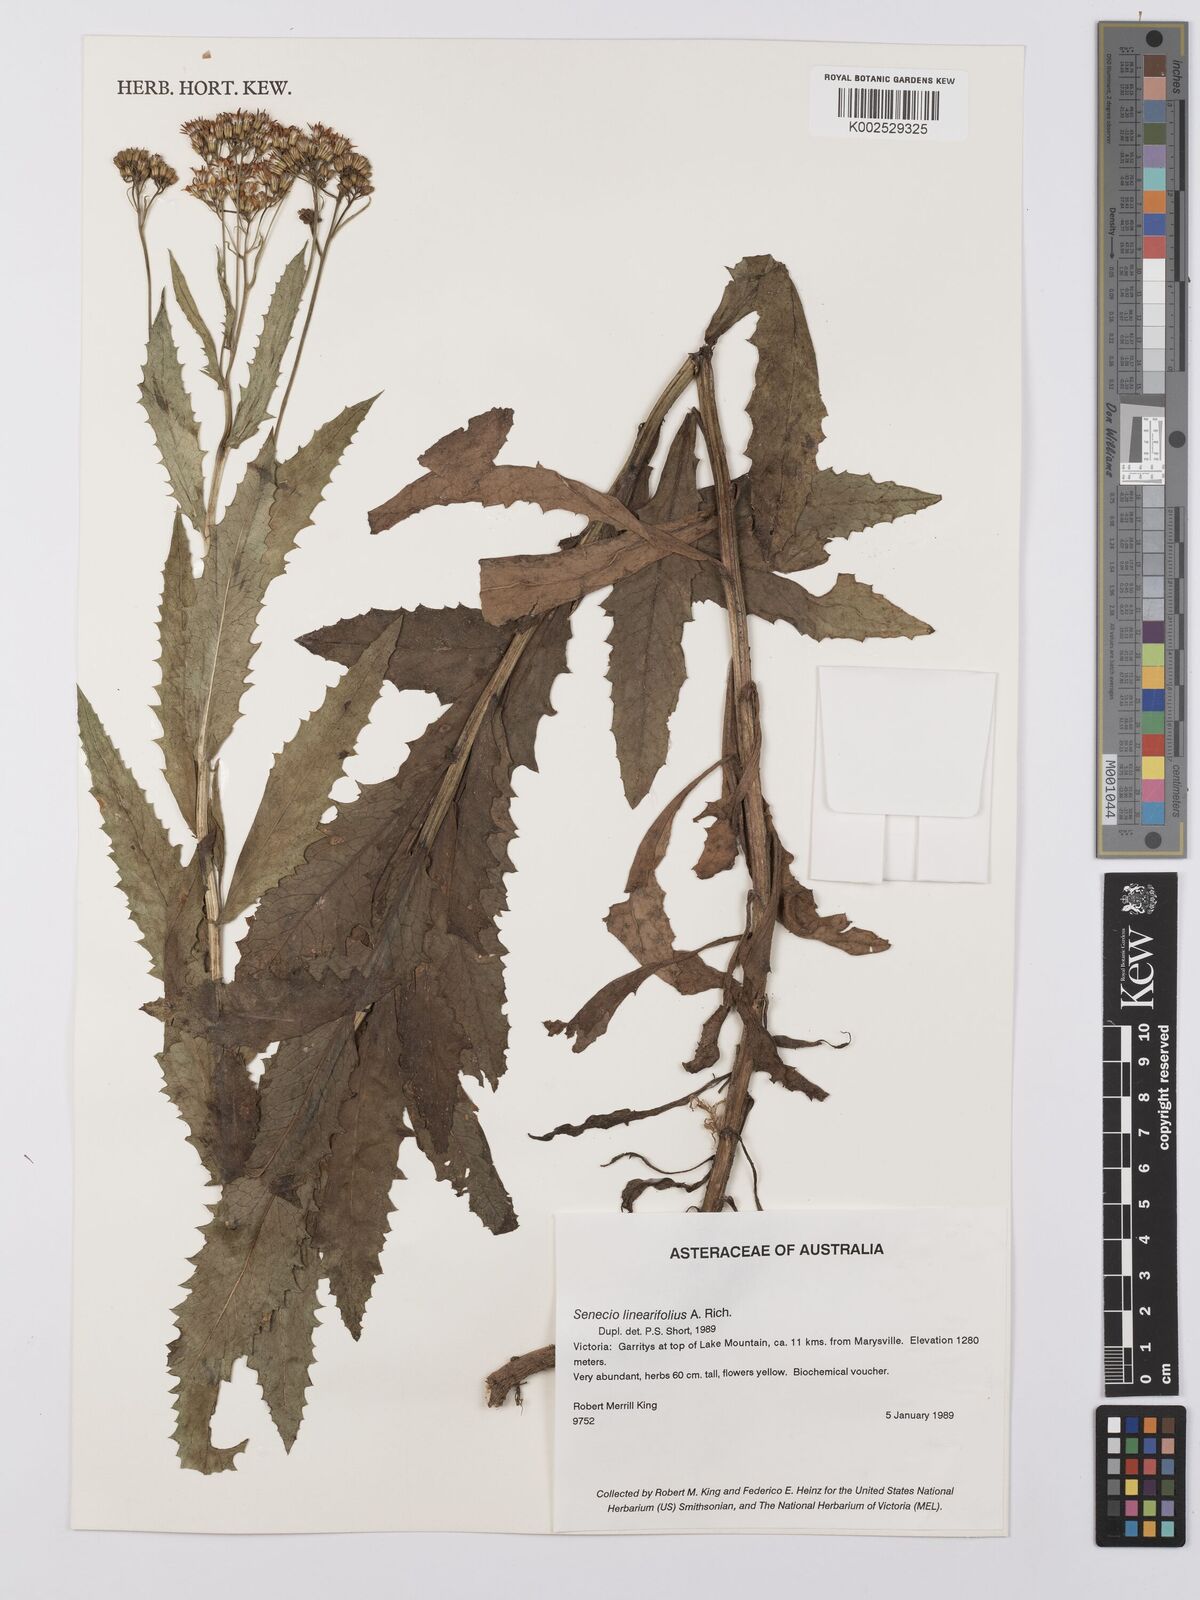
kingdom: Plantae
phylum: Tracheophyta
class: Magnoliopsida
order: Asterales
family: Asteraceae
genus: Senecio
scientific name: Senecio linearifolius
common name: Fireweed groundsel
